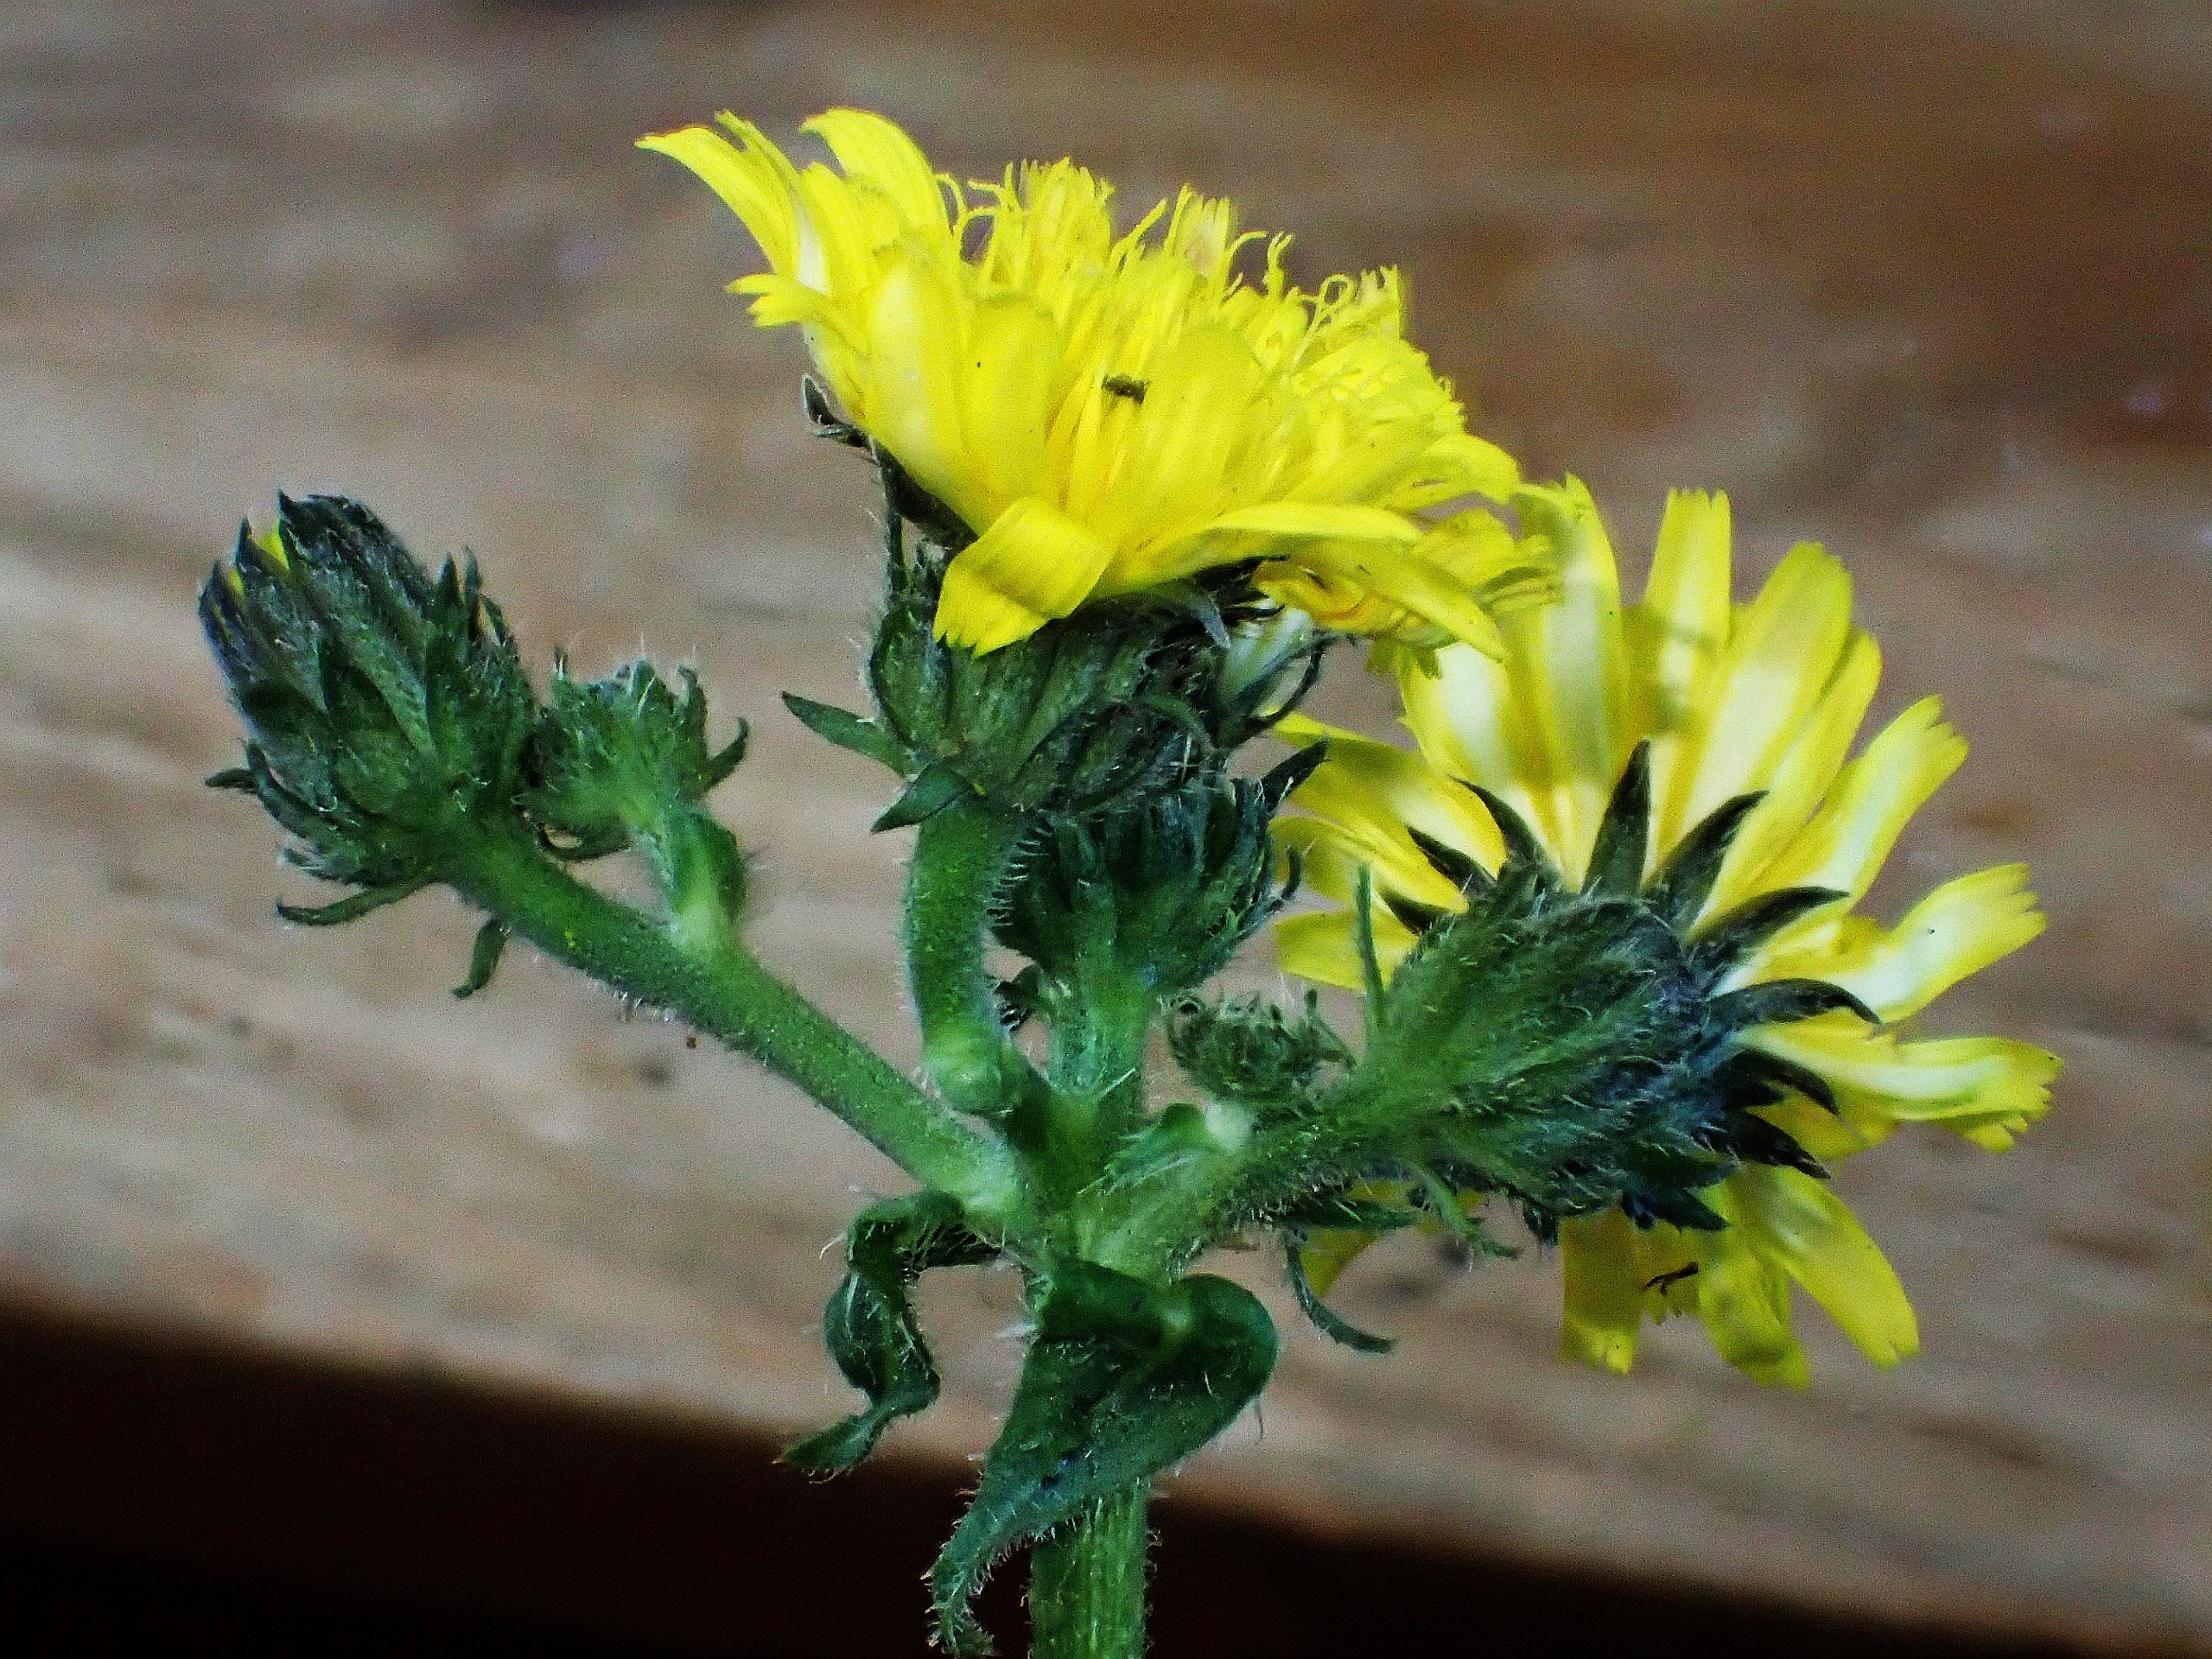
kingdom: Plantae
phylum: Tracheophyta
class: Magnoliopsida
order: Asterales
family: Asteraceae
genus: Picris
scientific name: Picris hieracioides
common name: Ru bittermælk
